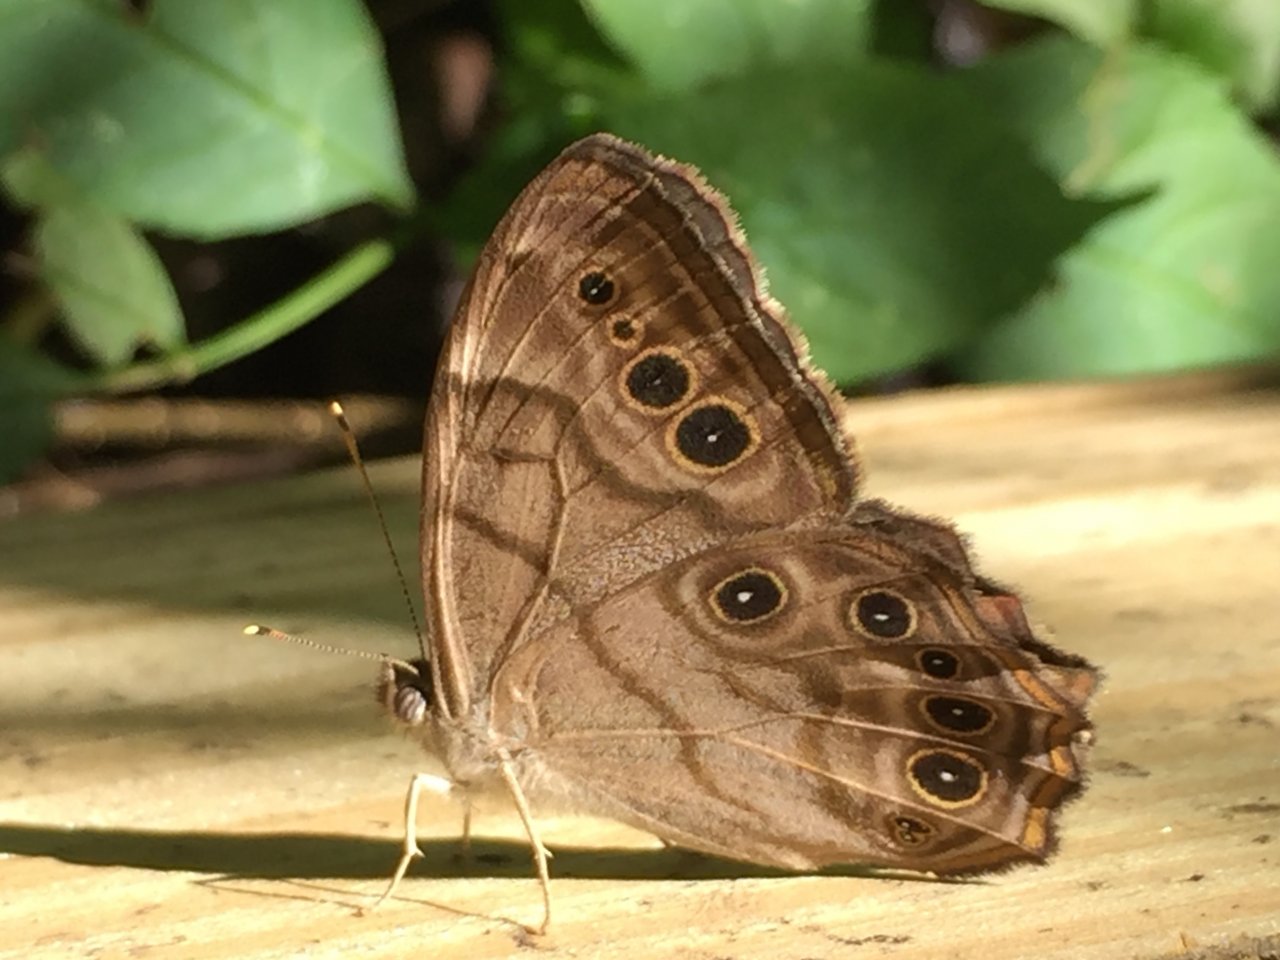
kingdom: Animalia
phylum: Arthropoda
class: Insecta
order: Lepidoptera
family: Nymphalidae
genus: Lethe
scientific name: Lethe anthedon
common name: Northern Pearly-Eye
